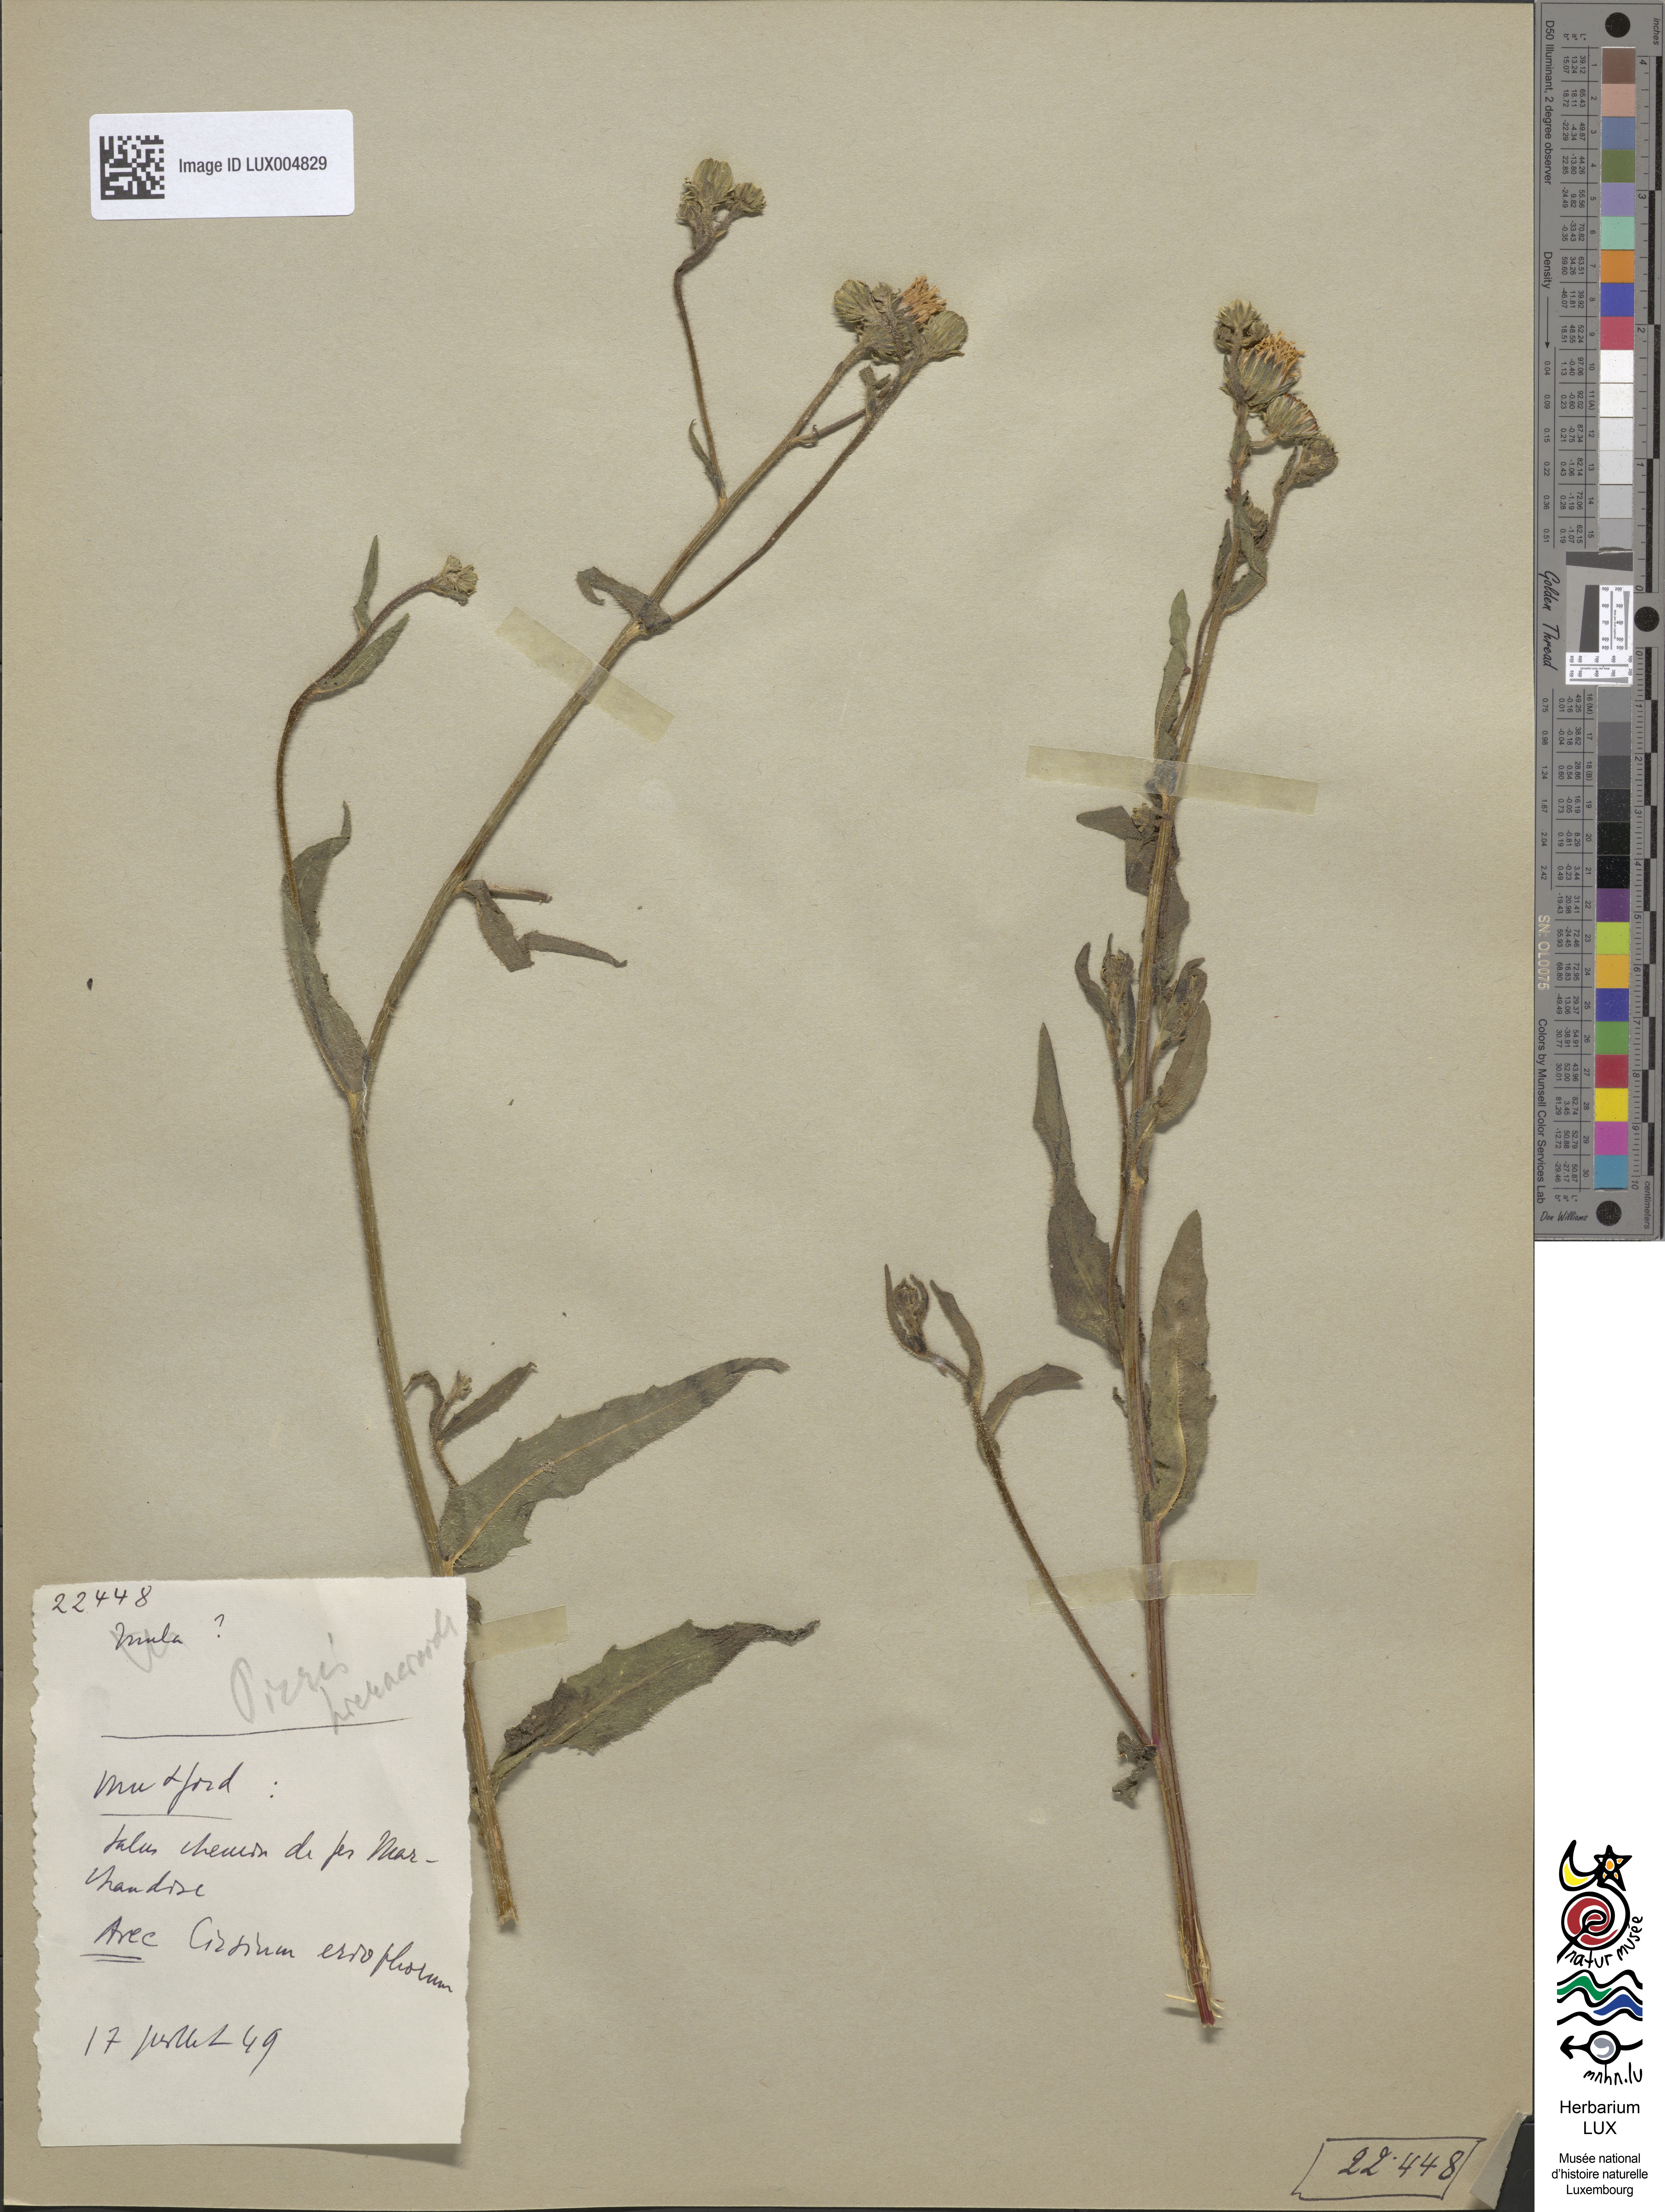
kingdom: Plantae
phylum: Tracheophyta
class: Magnoliopsida
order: Asterales
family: Asteraceae
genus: Picris
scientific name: Picris hieracioides
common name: Hawkweed oxtongue
